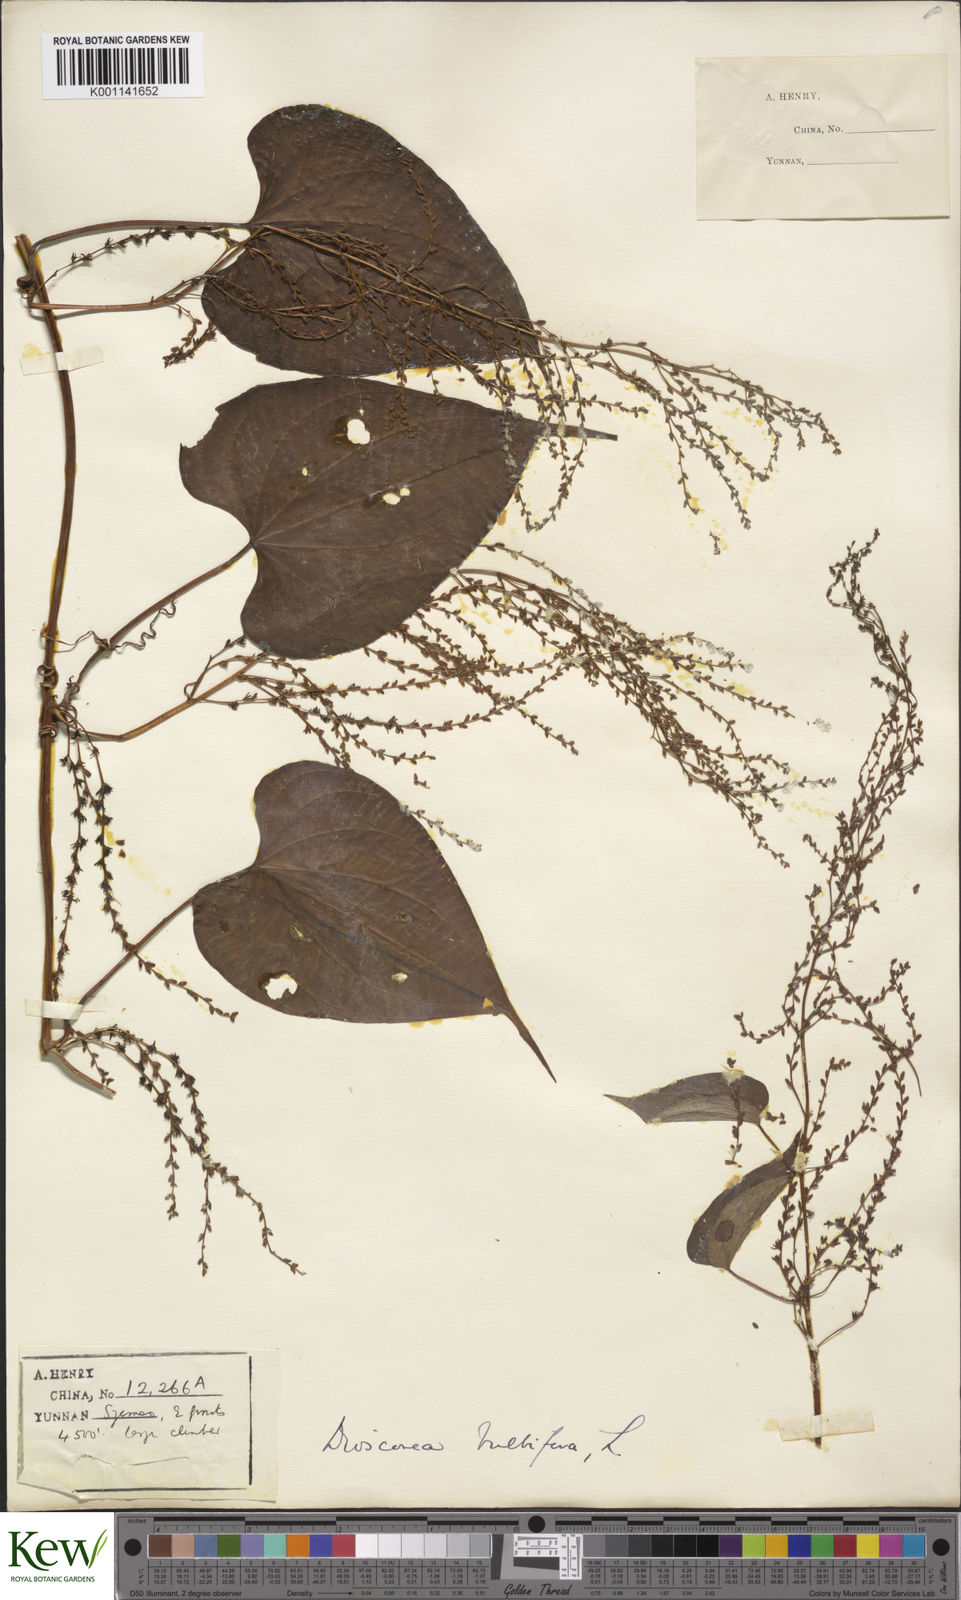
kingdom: Plantae
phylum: Tracheophyta
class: Liliopsida
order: Dioscoreales
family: Dioscoreaceae
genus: Dioscorea
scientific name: Dioscorea bulbifera
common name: Air yam
